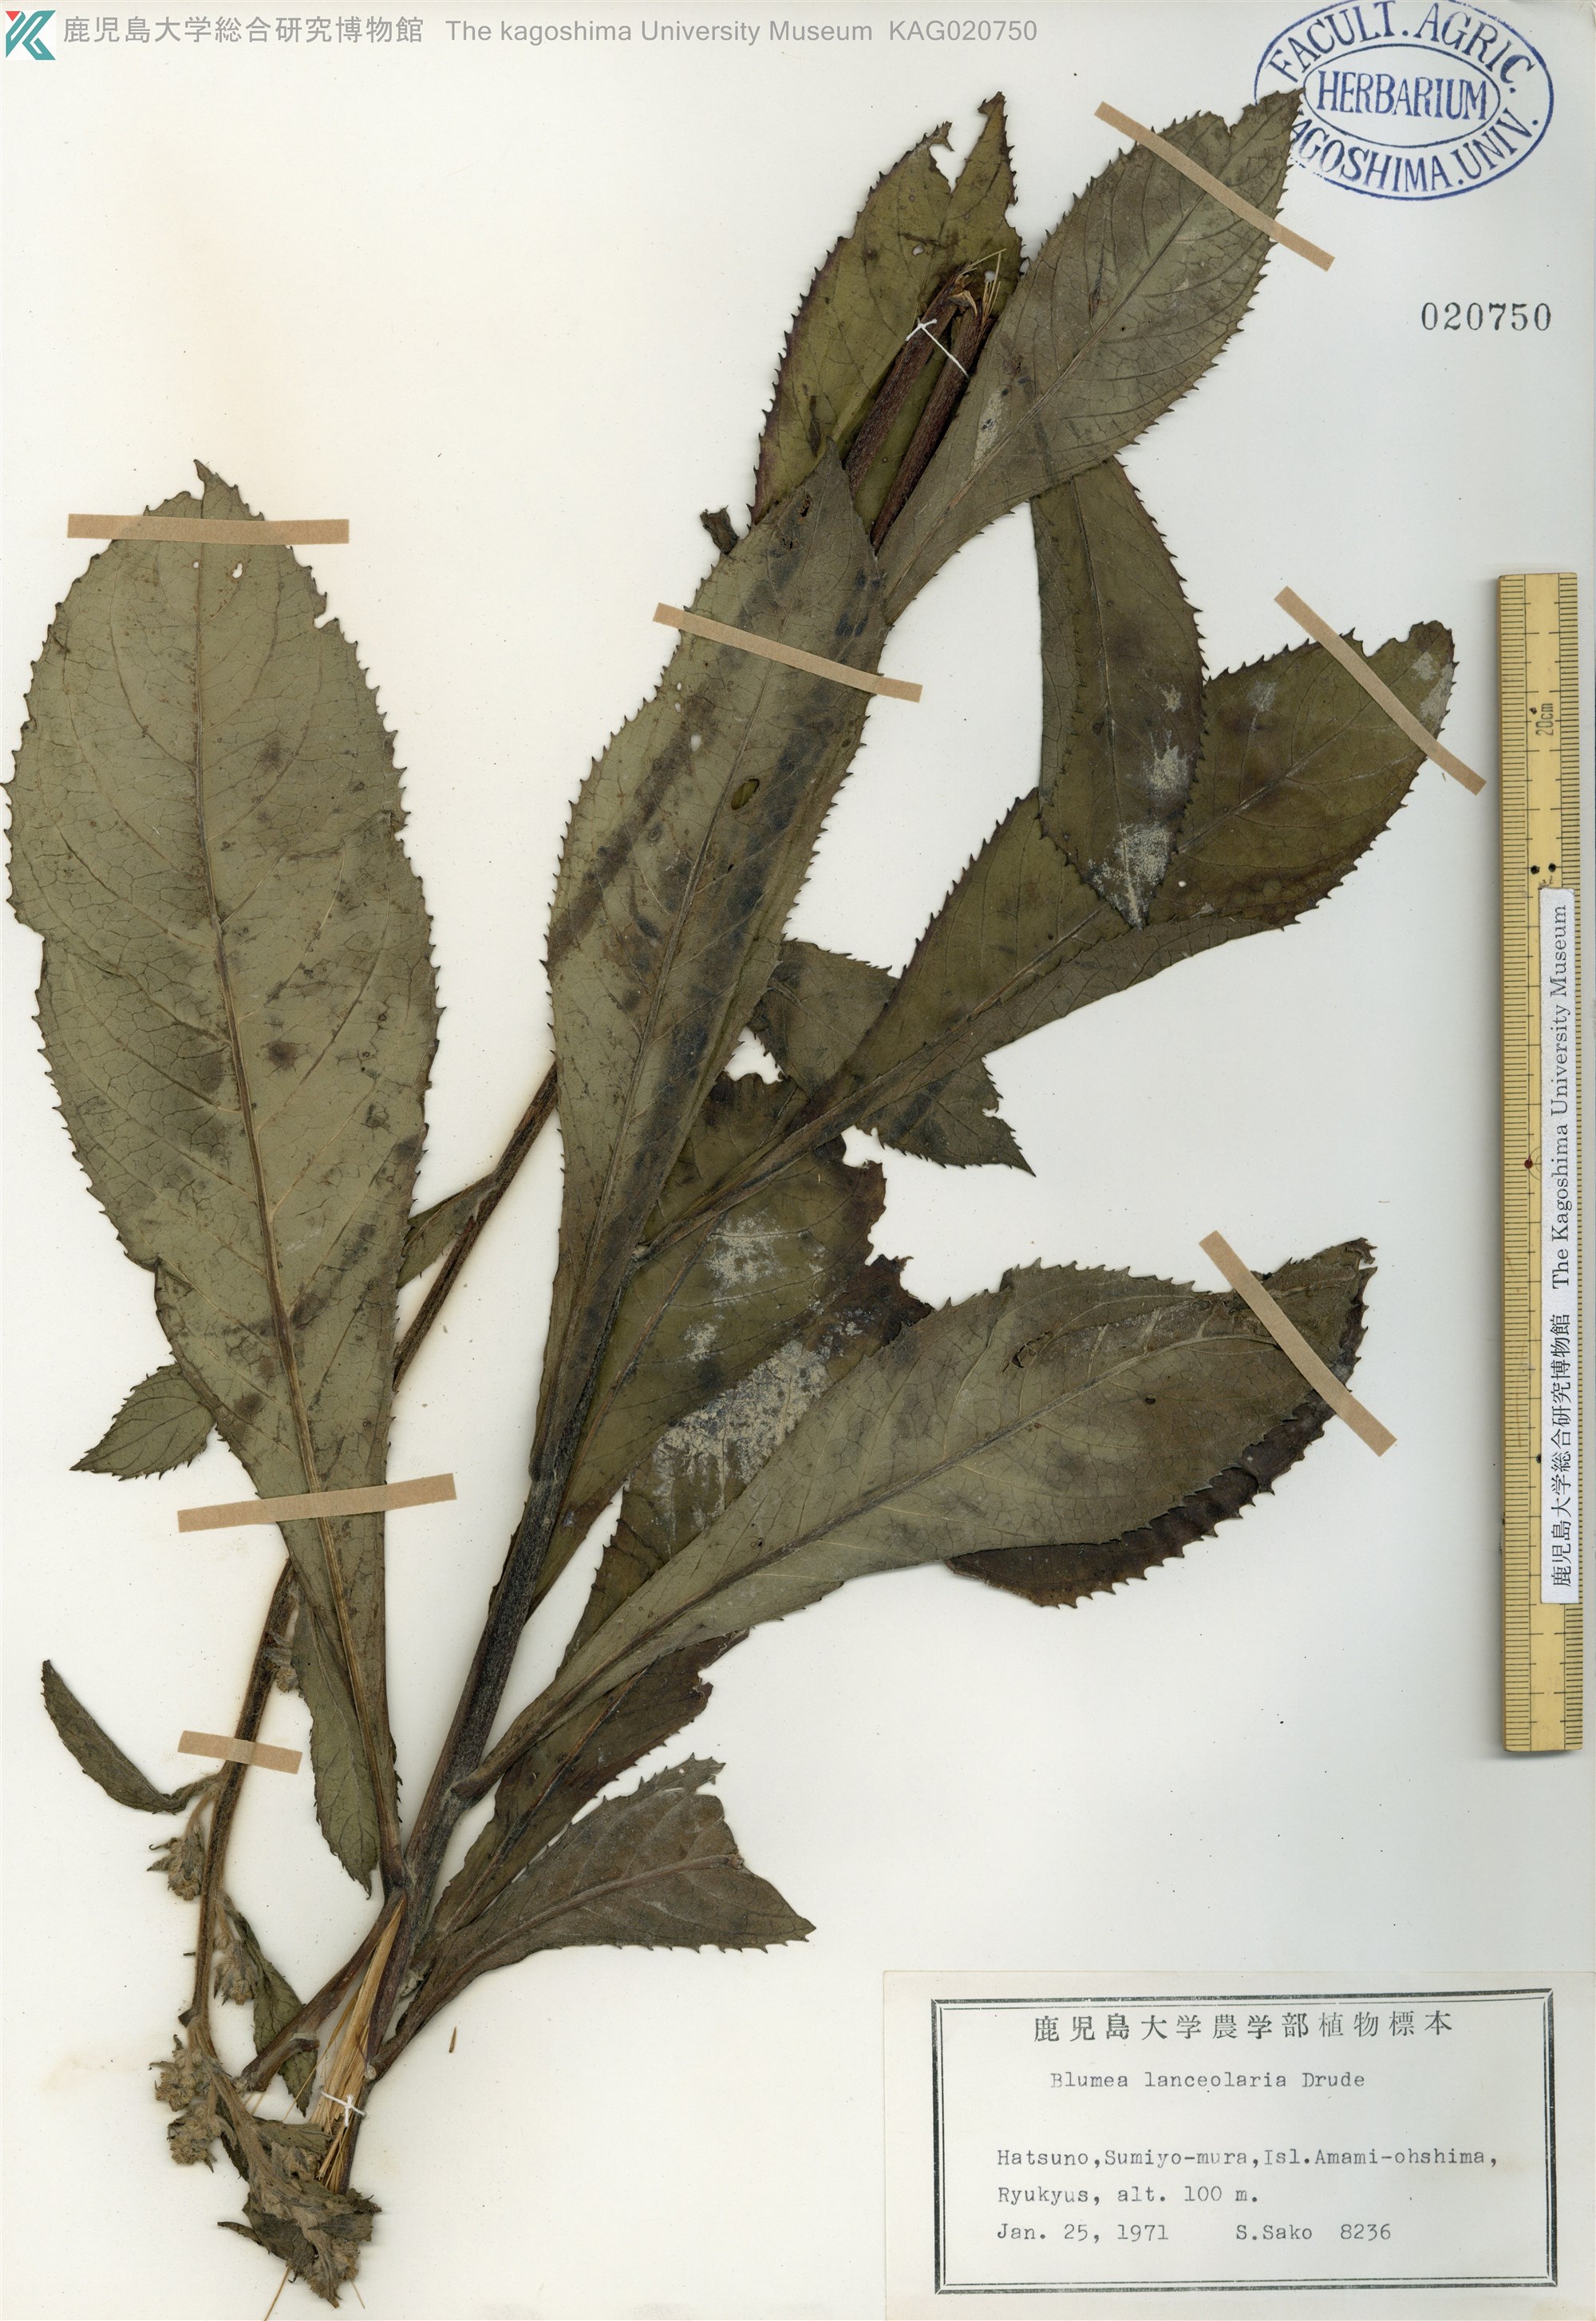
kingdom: Plantae
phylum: Tracheophyta
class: Magnoliopsida
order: Asterales
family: Asteraceae
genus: Blumea
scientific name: Blumea conspicua
